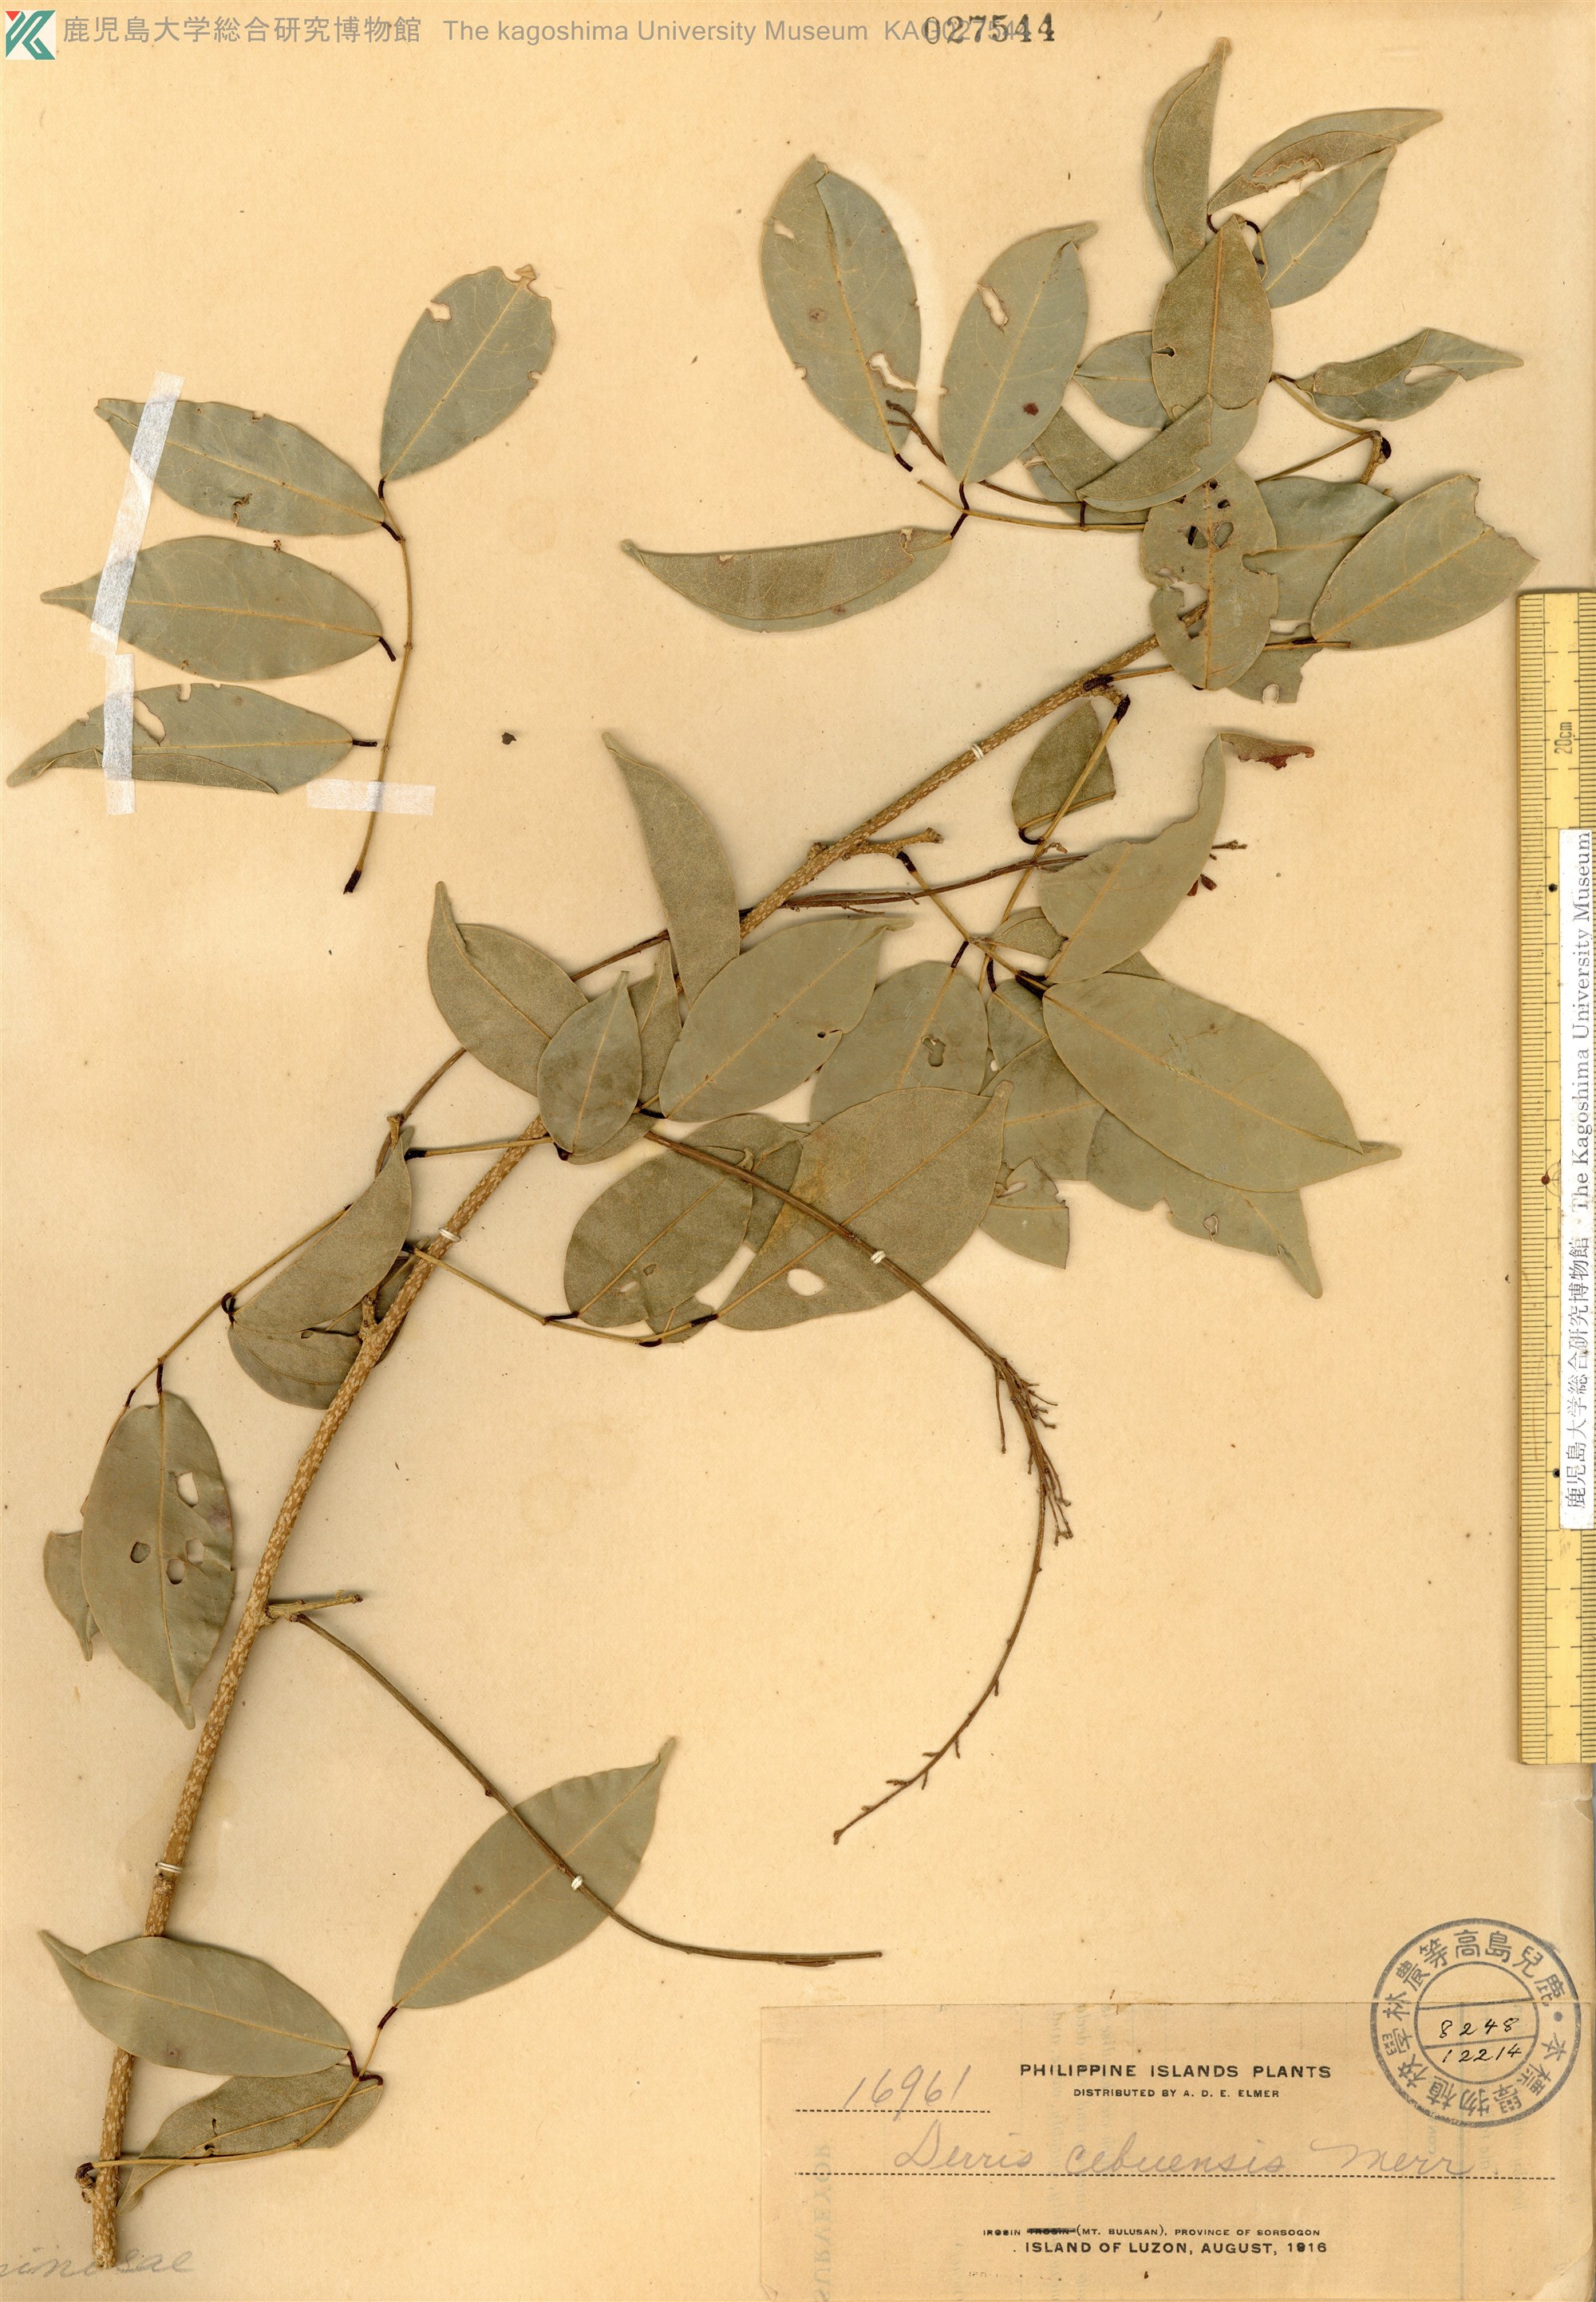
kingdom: Plantae
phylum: Tracheophyta
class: Magnoliopsida
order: Fabales
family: Fabaceae
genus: Derris
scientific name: Derris spanogheana
